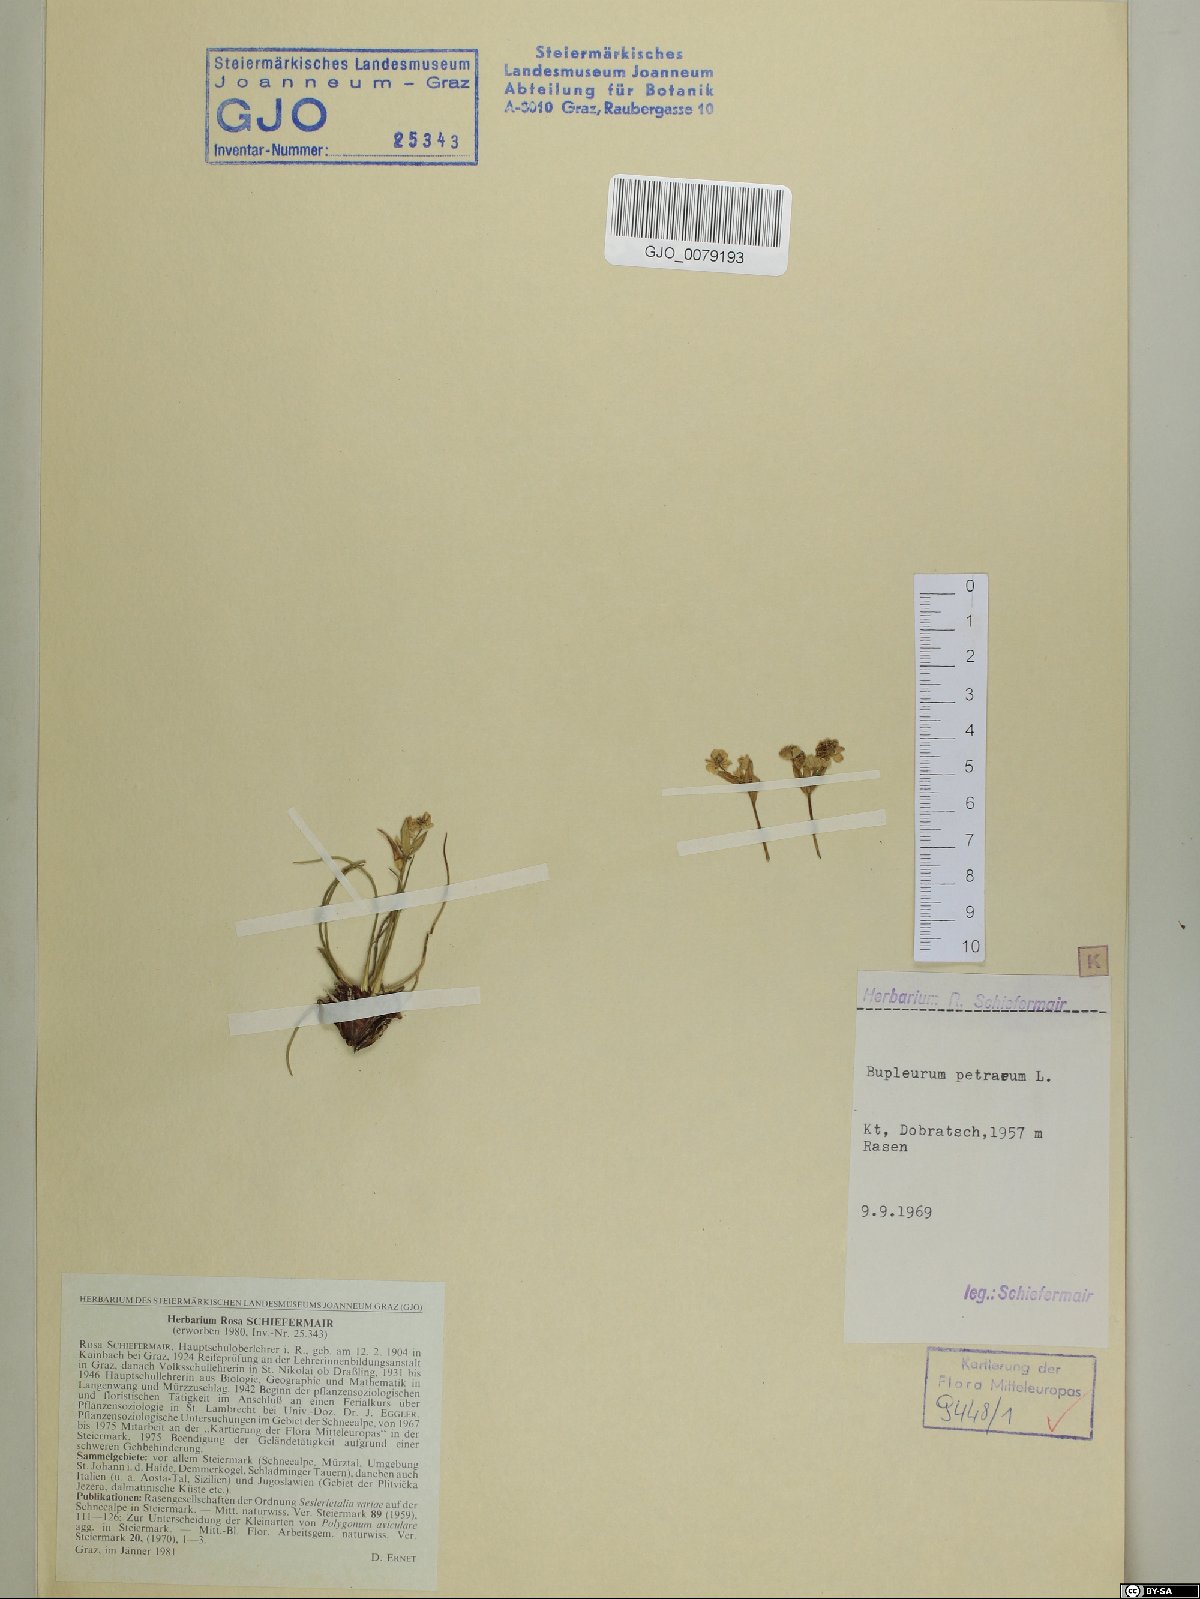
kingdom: Plantae
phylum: Tracheophyta
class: Magnoliopsida
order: Apiales
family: Apiaceae
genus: Bupleurum
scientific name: Bupleurum petraeum
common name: Rock hare's-ear
